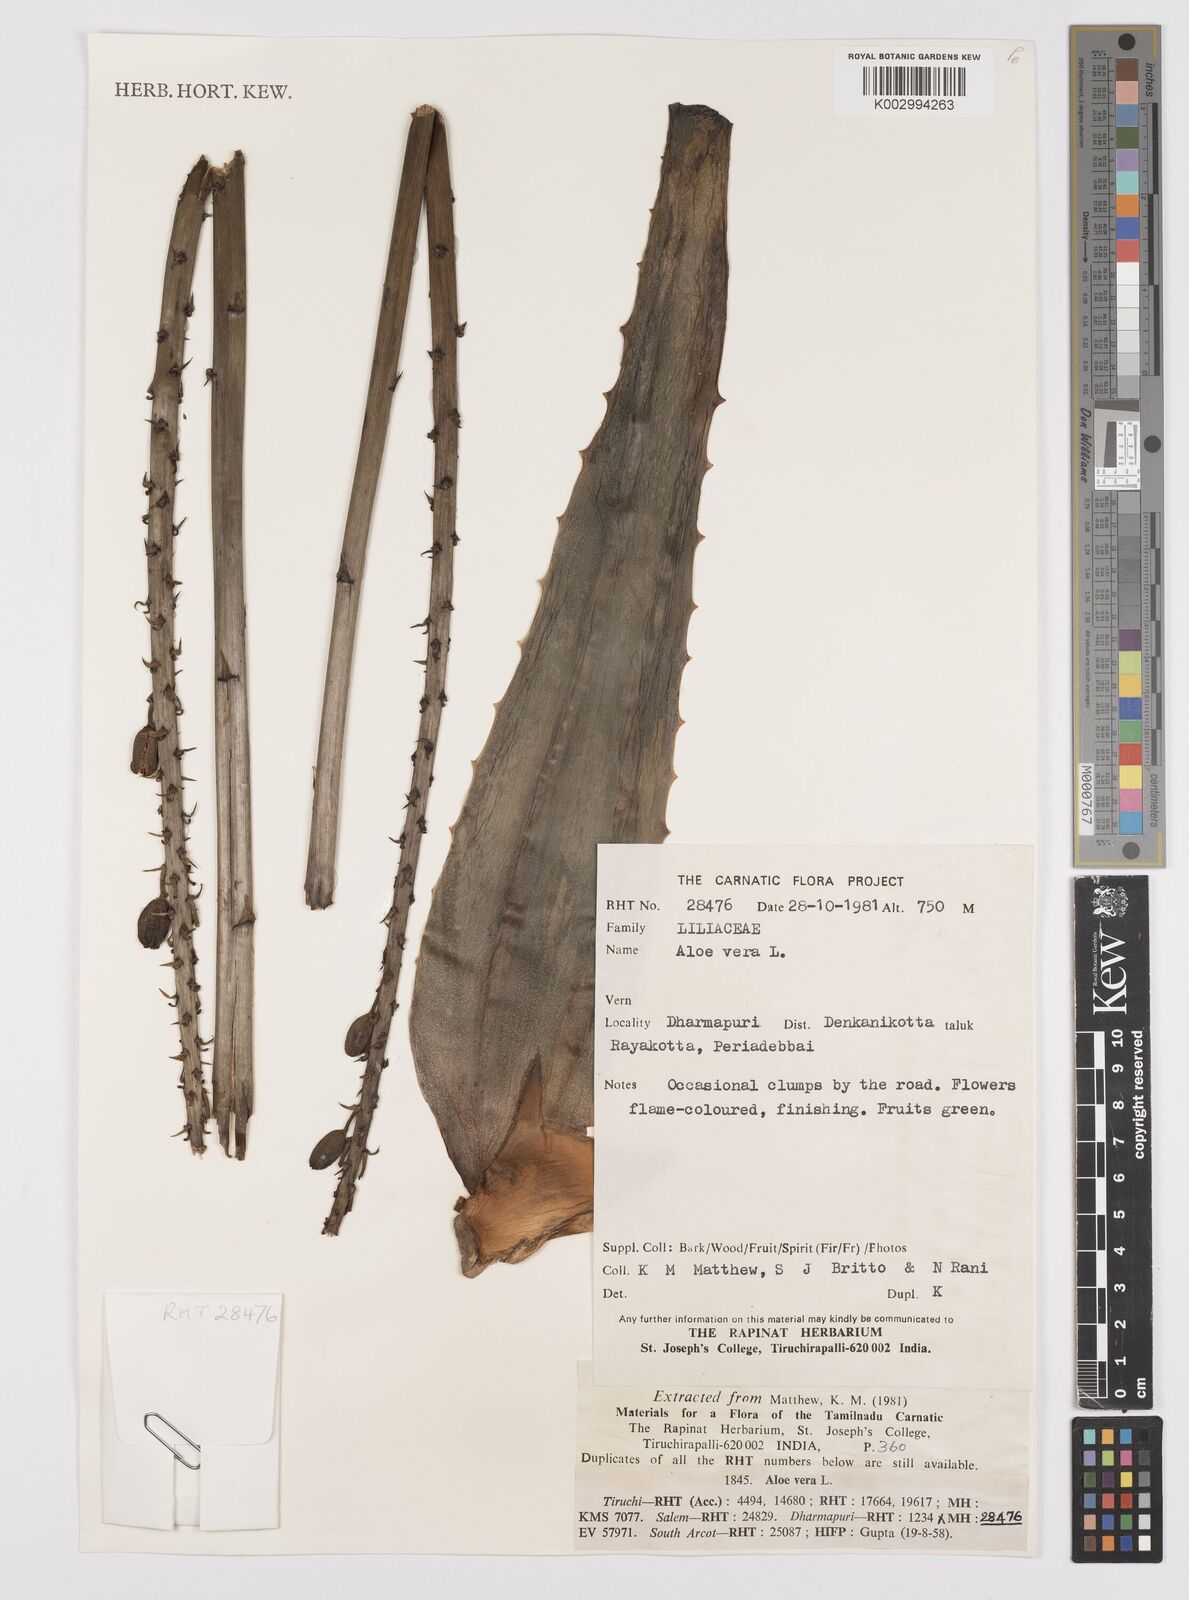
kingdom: Plantae
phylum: Tracheophyta
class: Liliopsida
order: Asparagales
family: Asphodelaceae
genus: Aloe
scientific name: Aloe vera
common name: Barbados aloe
